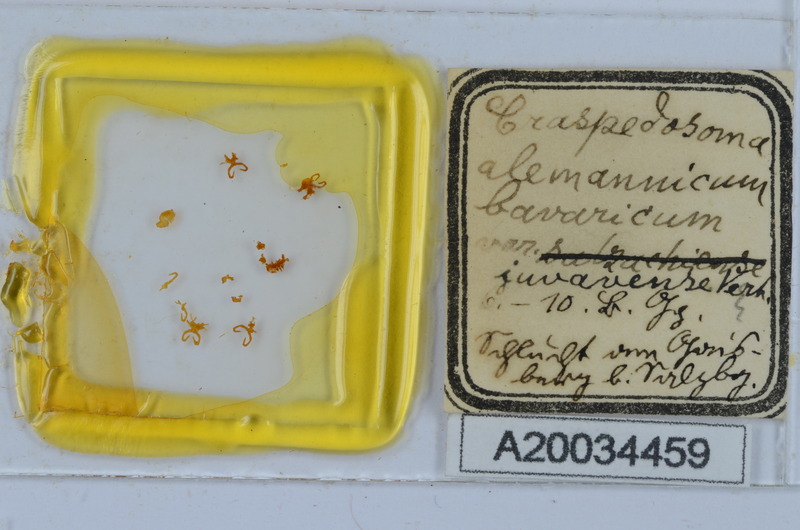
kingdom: Animalia
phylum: Arthropoda
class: Diplopoda
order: Chordeumatida
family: Craspedosomatidae
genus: Craspedosoma
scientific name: Craspedosoma rawlinsii
